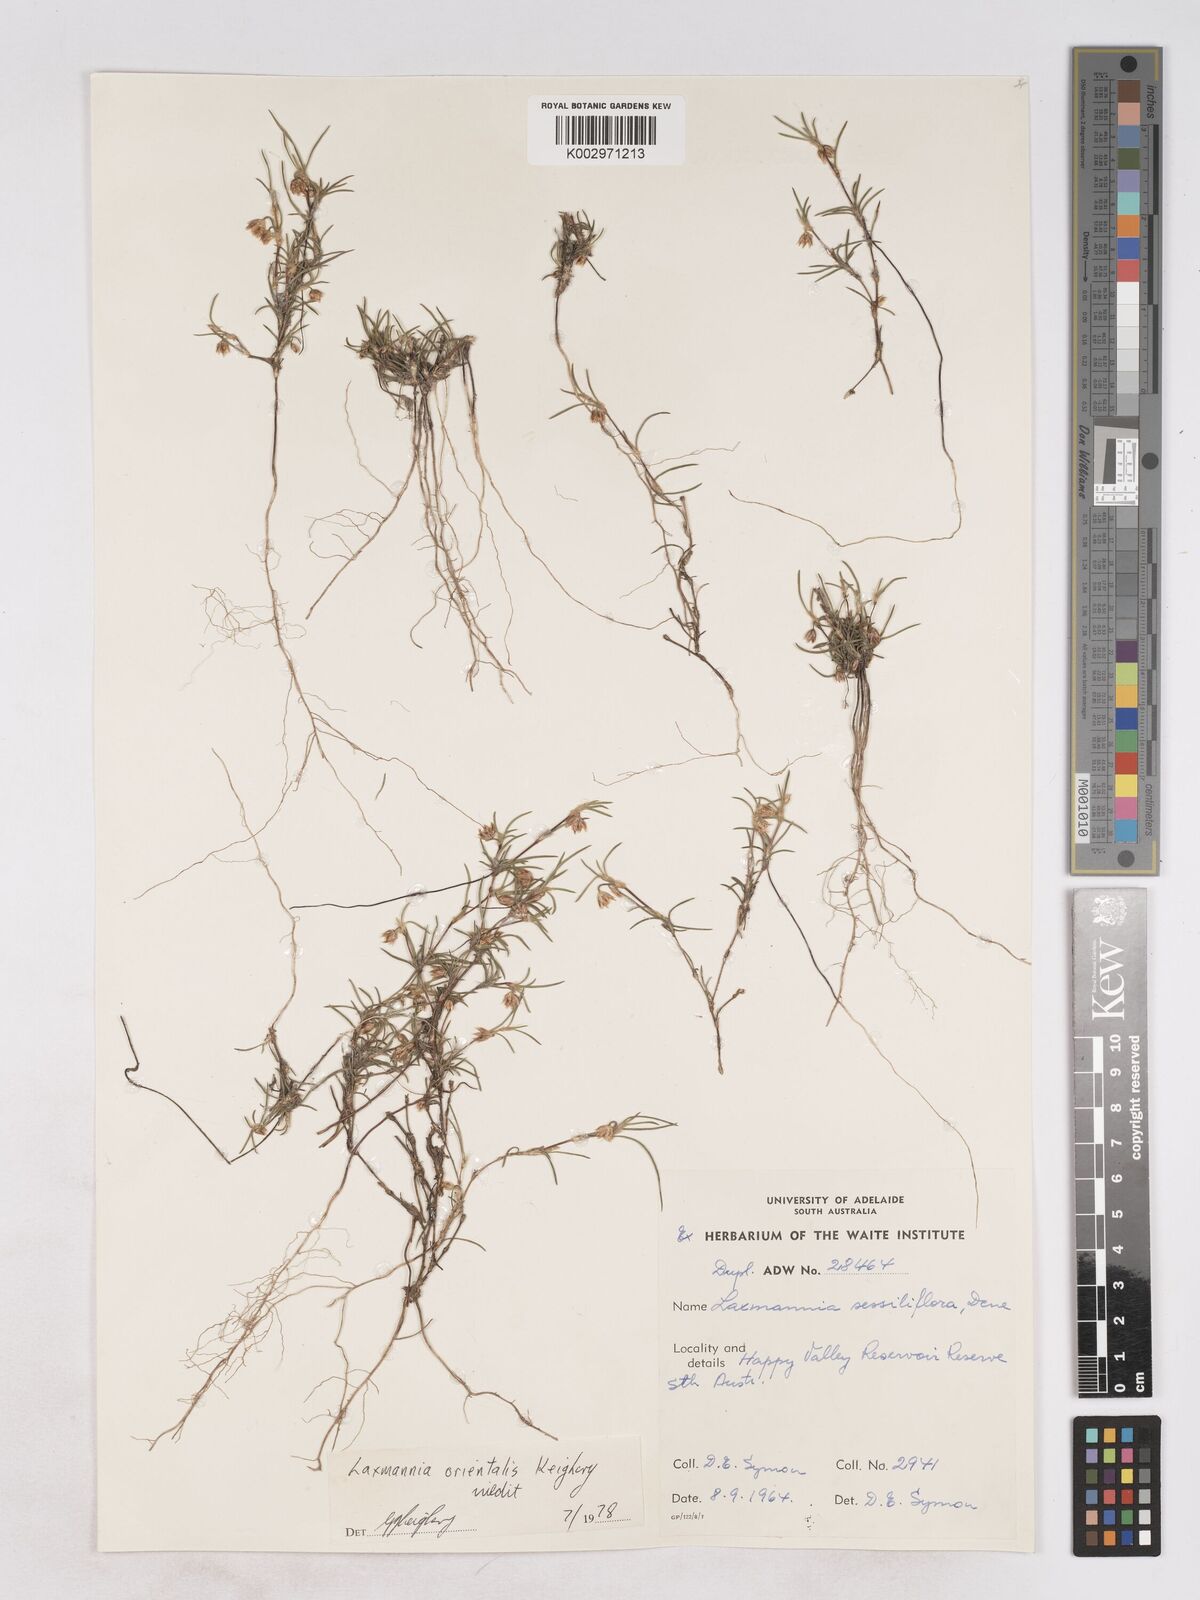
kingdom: Plantae
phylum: Tracheophyta
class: Liliopsida
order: Asparagales
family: Asparagaceae
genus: Laxmannia
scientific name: Laxmannia orientalis
